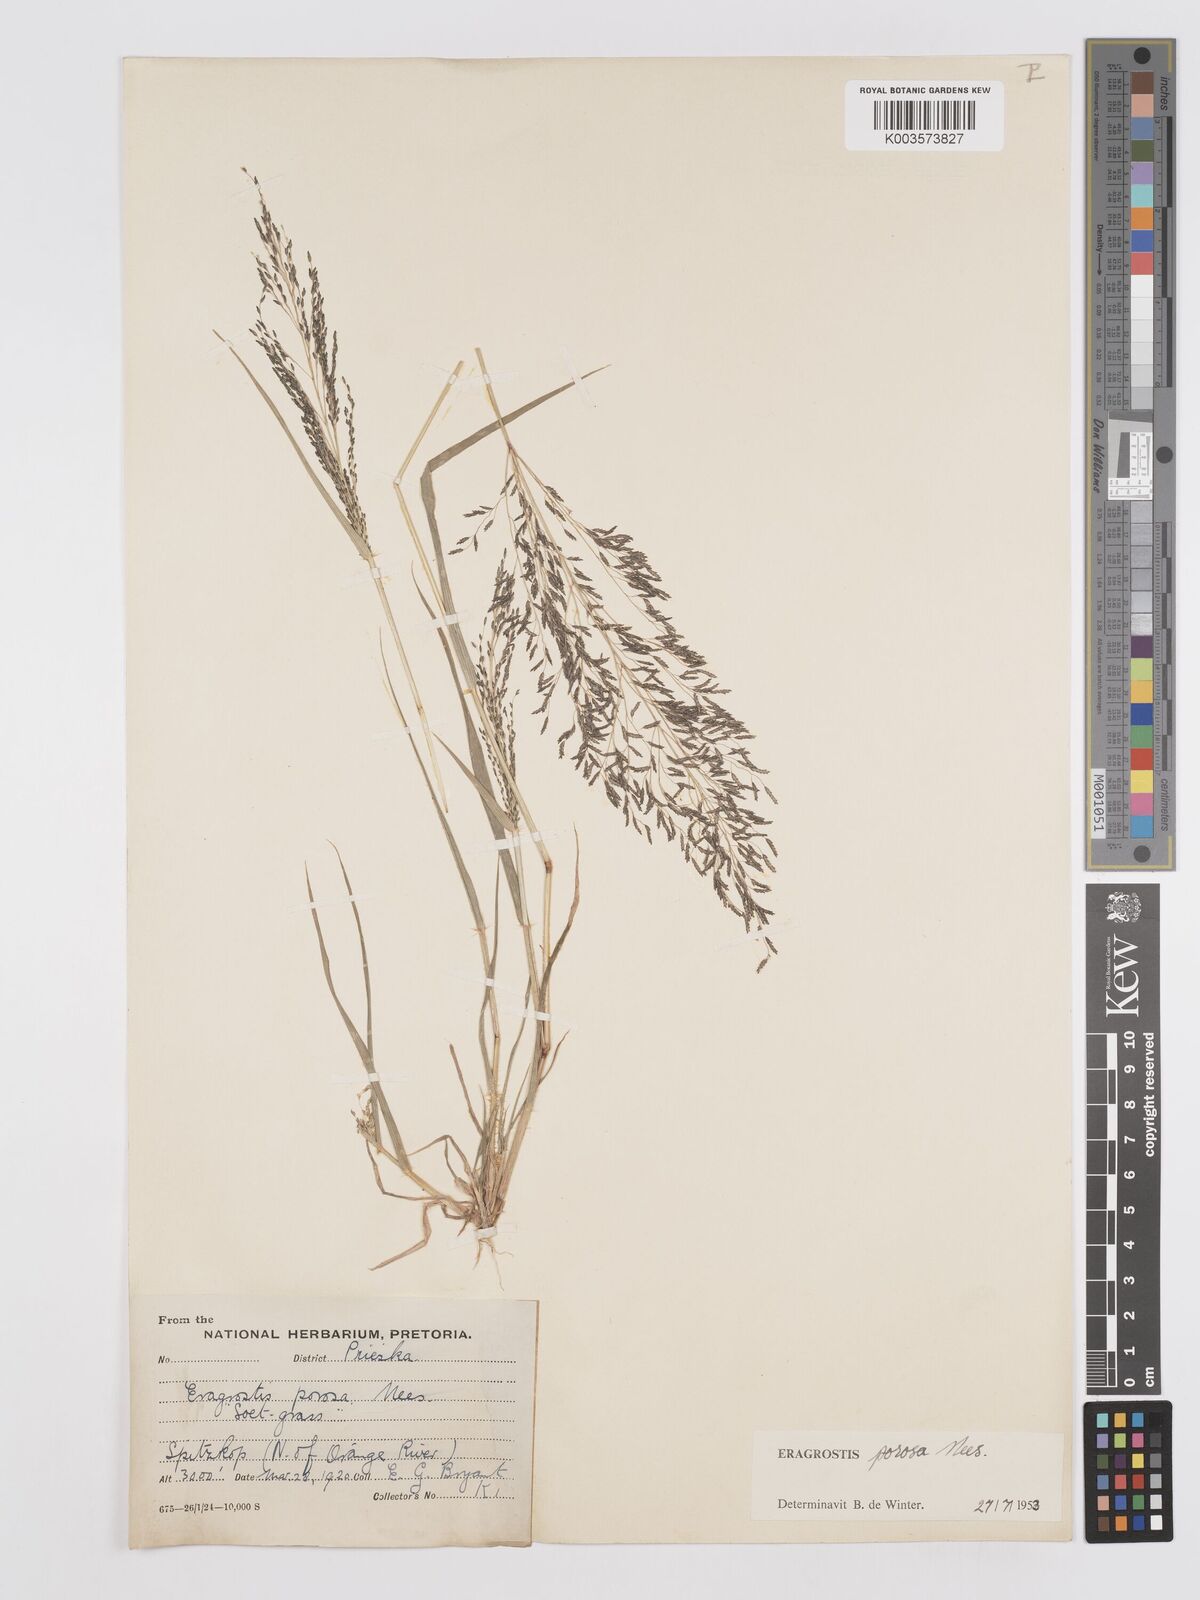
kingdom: Plantae
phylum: Tracheophyta
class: Liliopsida
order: Poales
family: Poaceae
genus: Eragrostis
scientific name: Eragrostis porosa
